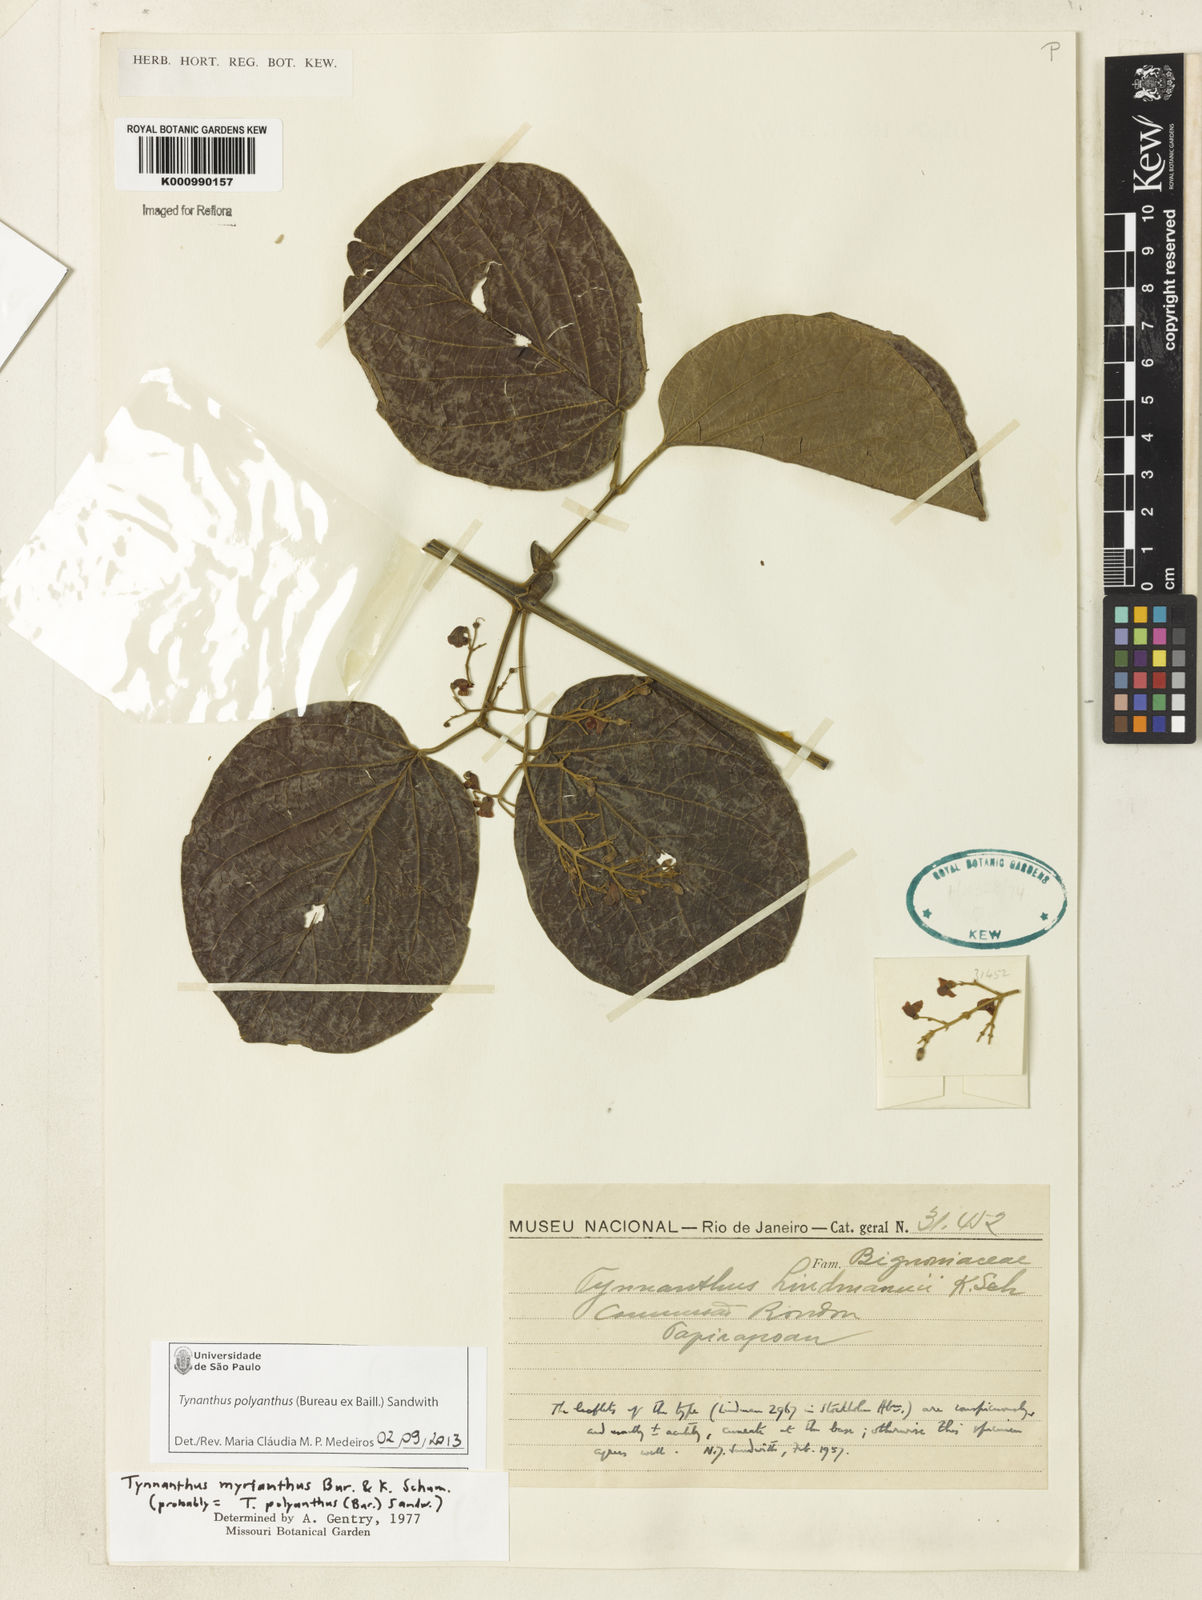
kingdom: Plantae
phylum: Tracheophyta
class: Magnoliopsida
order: Lamiales
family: Bignoniaceae
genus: Tynanthus
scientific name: Tynanthus polyanthus
